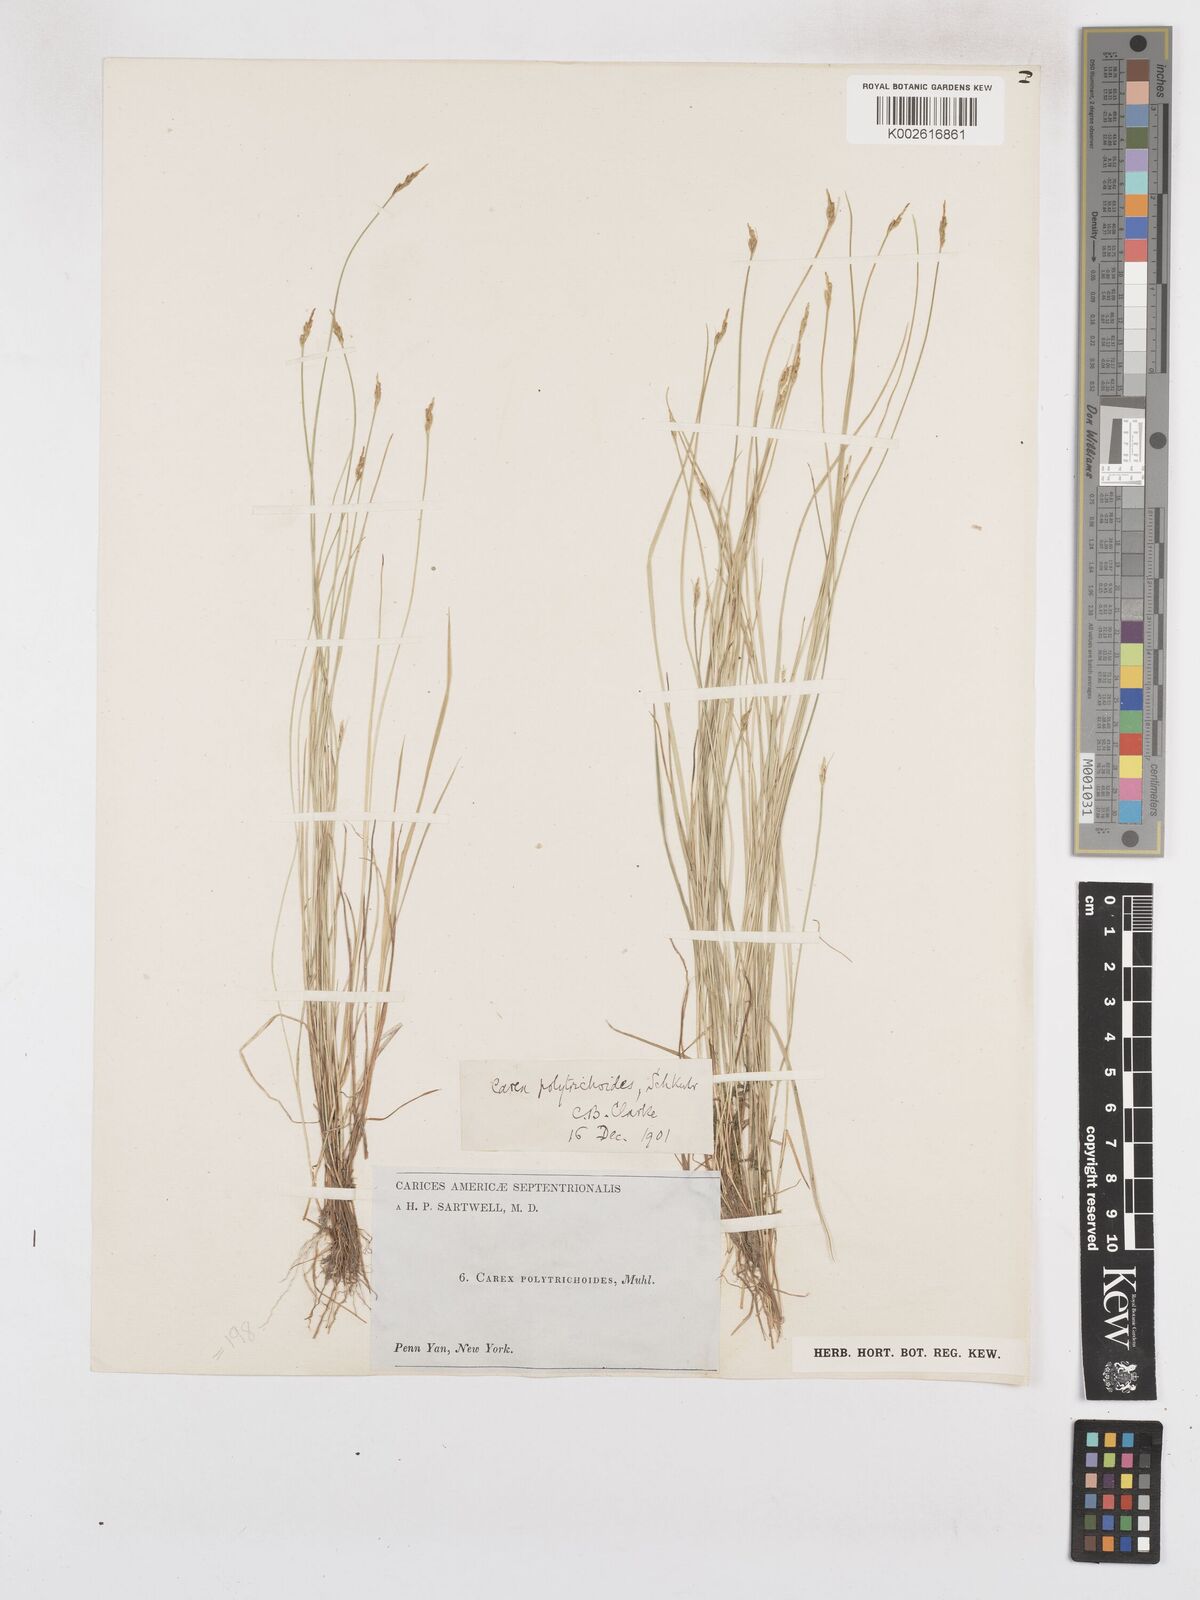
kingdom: Plantae
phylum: Tracheophyta
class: Liliopsida
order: Poales
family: Cyperaceae
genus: Carex
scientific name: Carex leptalea
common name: Bristly-stalked sedge
